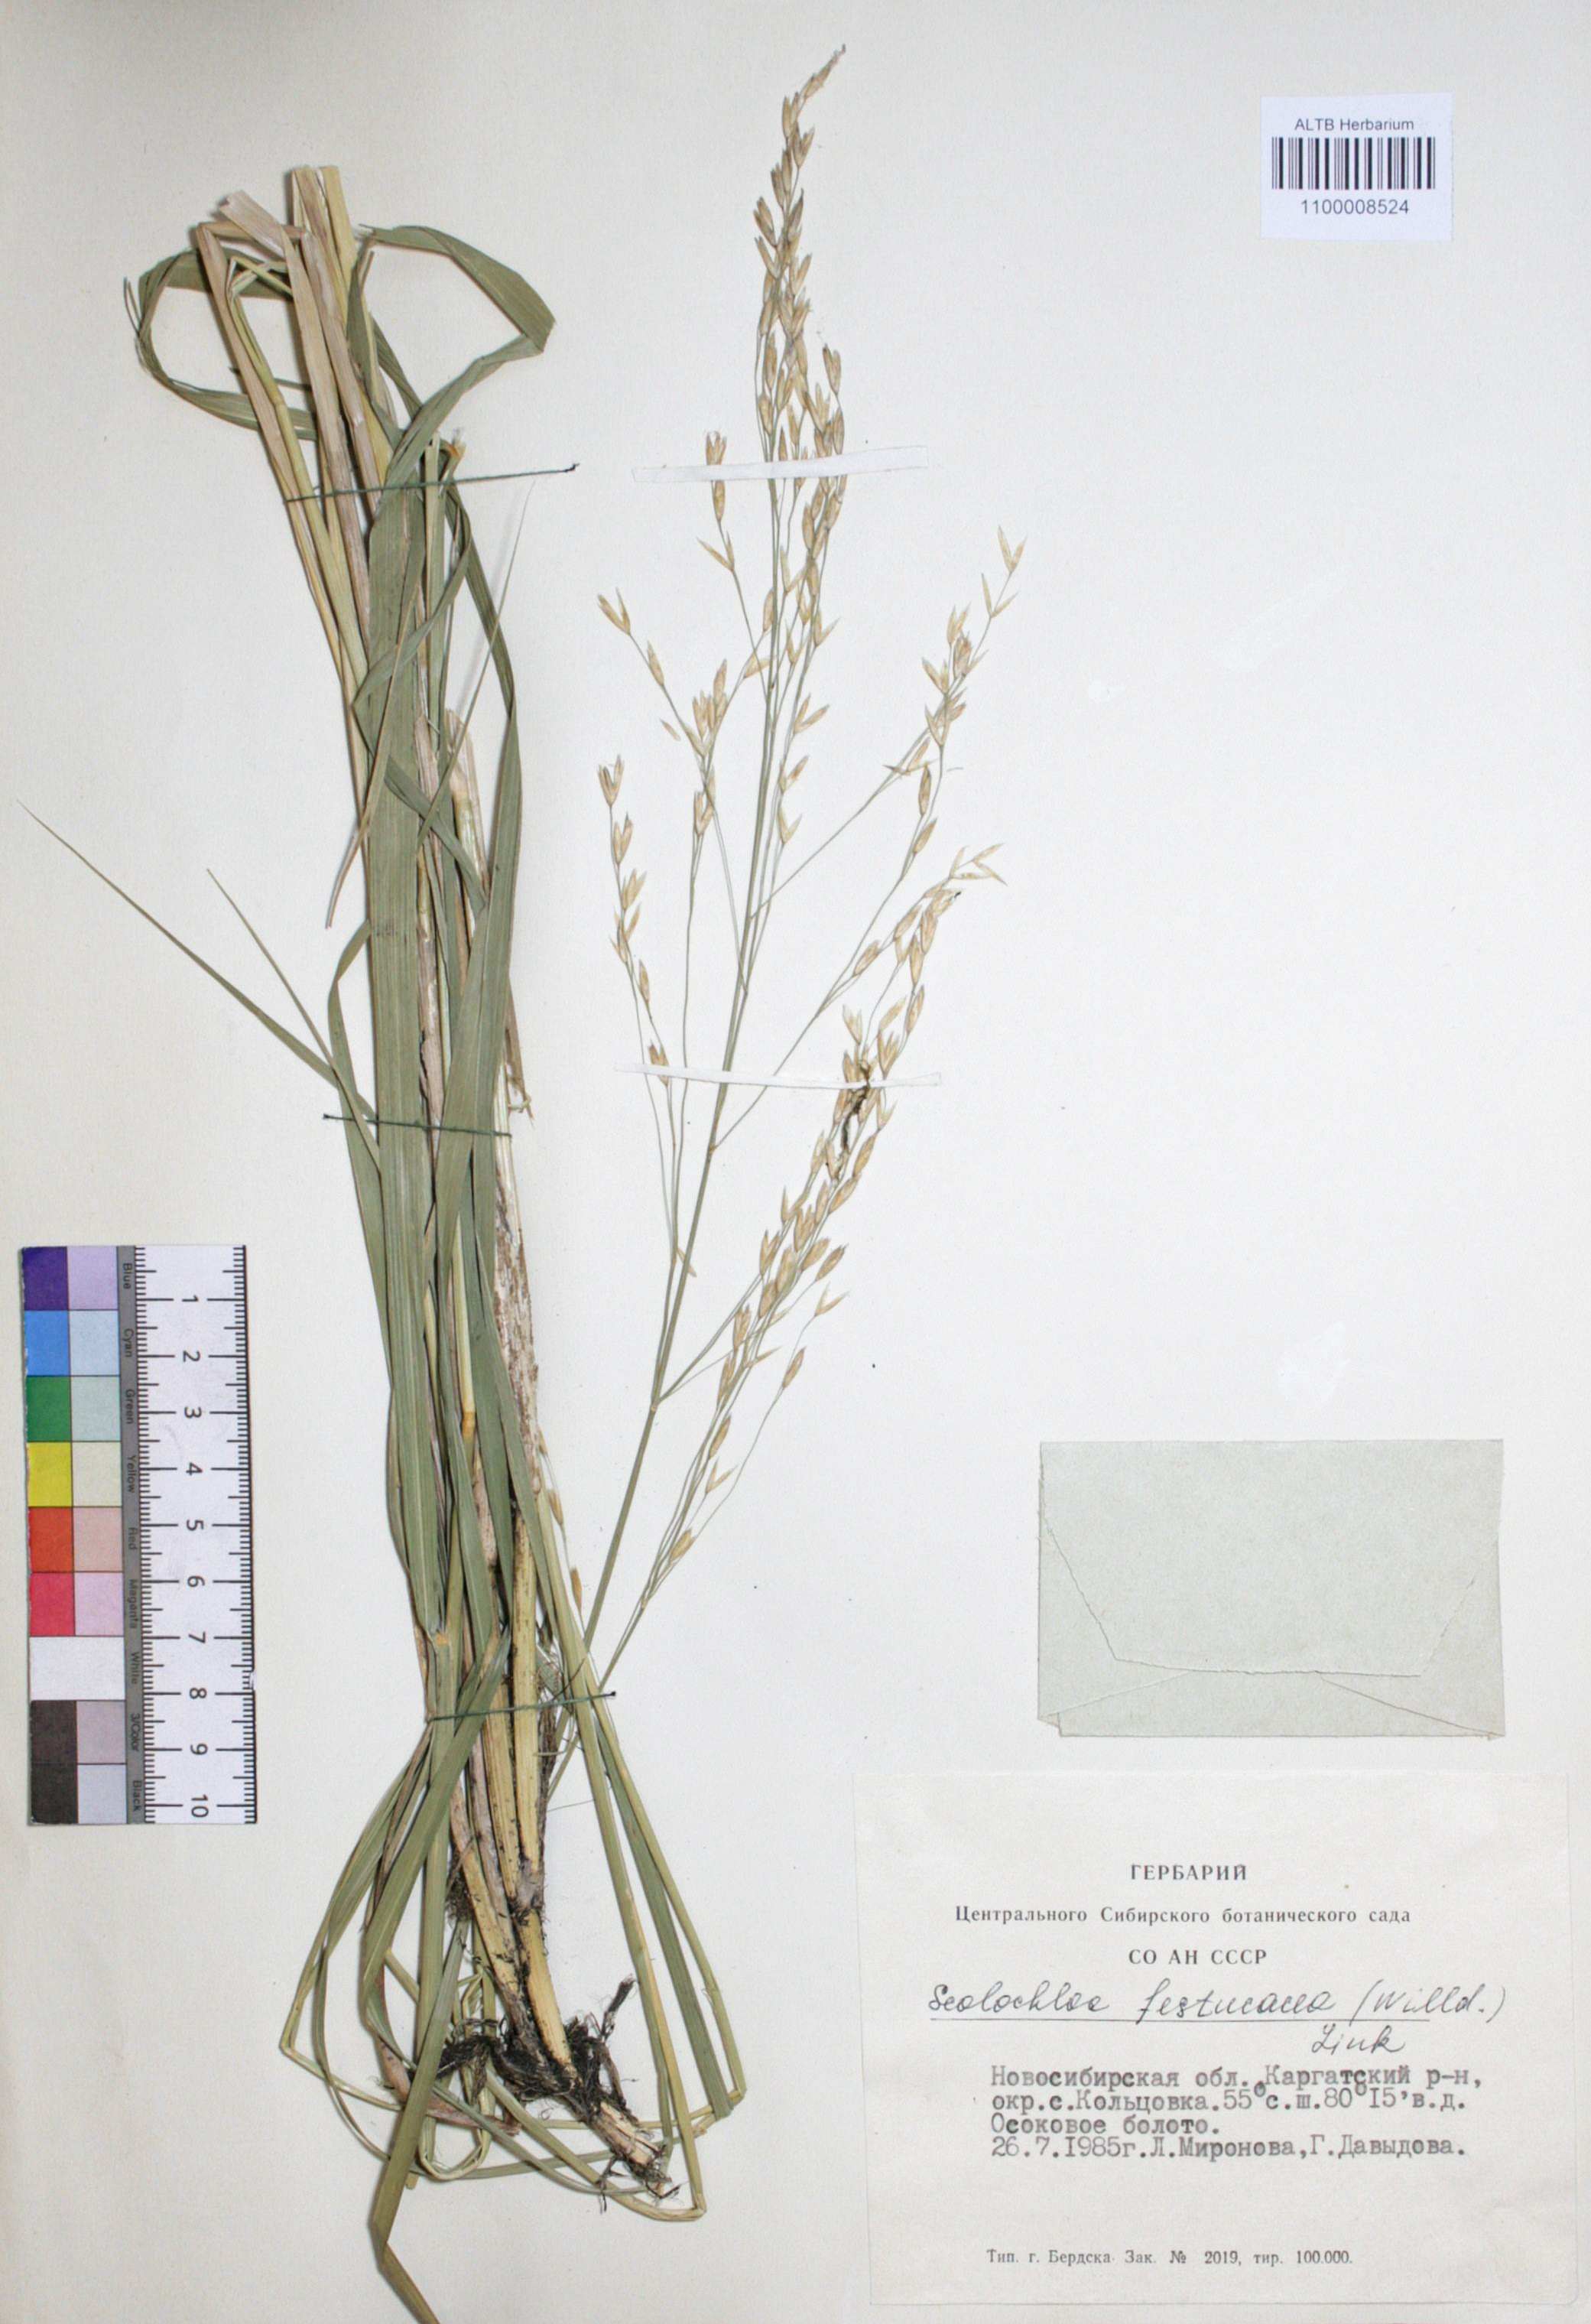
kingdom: Plantae
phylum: Tracheophyta
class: Liliopsida
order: Poales
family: Poaceae
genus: Scolochloa
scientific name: Scolochloa festucacea
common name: Common rivergrass
